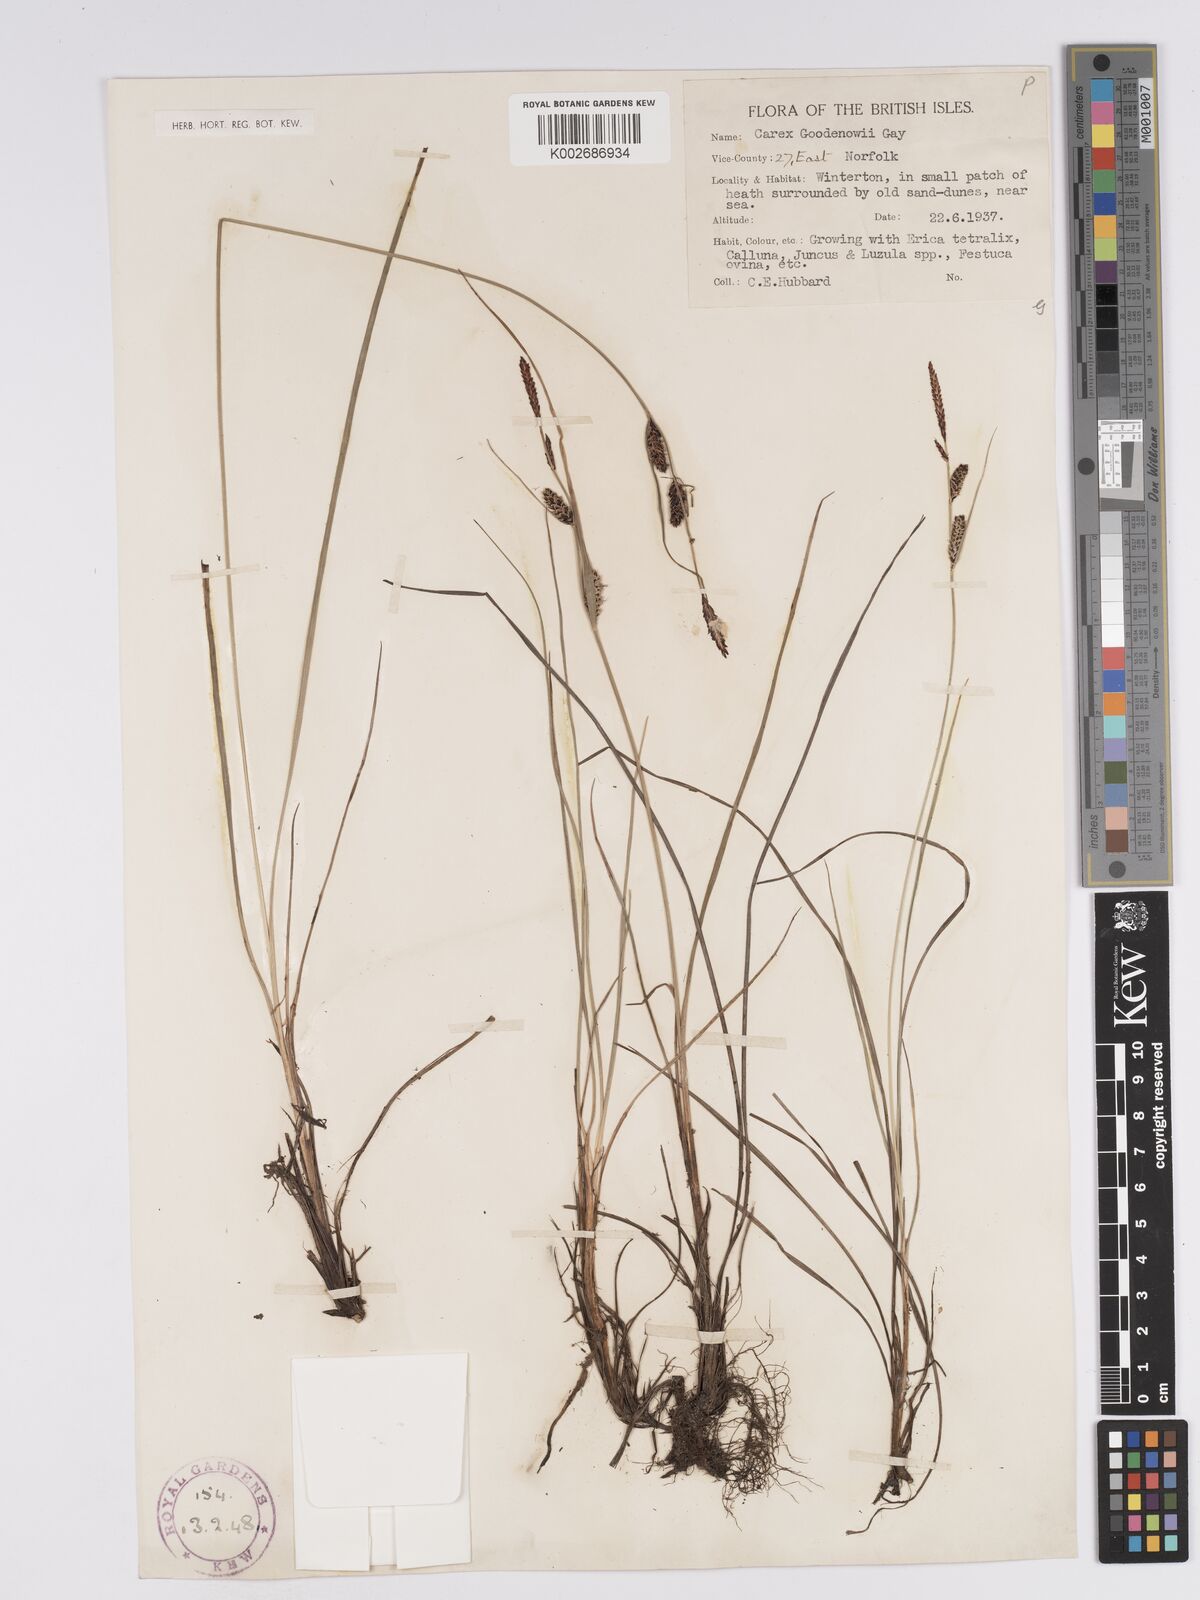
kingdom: Plantae
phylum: Tracheophyta
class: Liliopsida
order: Poales
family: Cyperaceae
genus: Carex
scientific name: Carex nigra
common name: Common sedge
